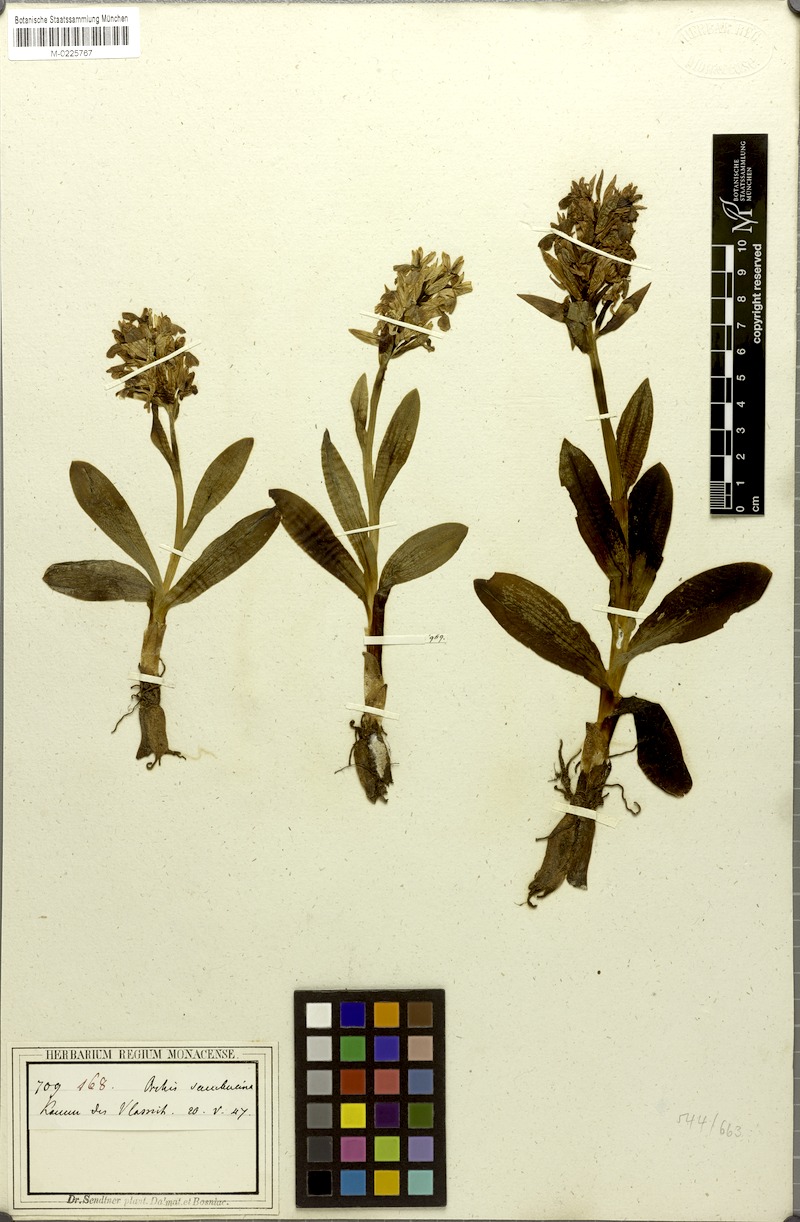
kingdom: Plantae
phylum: Tracheophyta
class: Liliopsida
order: Asparagales
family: Orchidaceae
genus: Dactylorhiza
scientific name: Dactylorhiza sambucina
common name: Elder-flowered orchid
